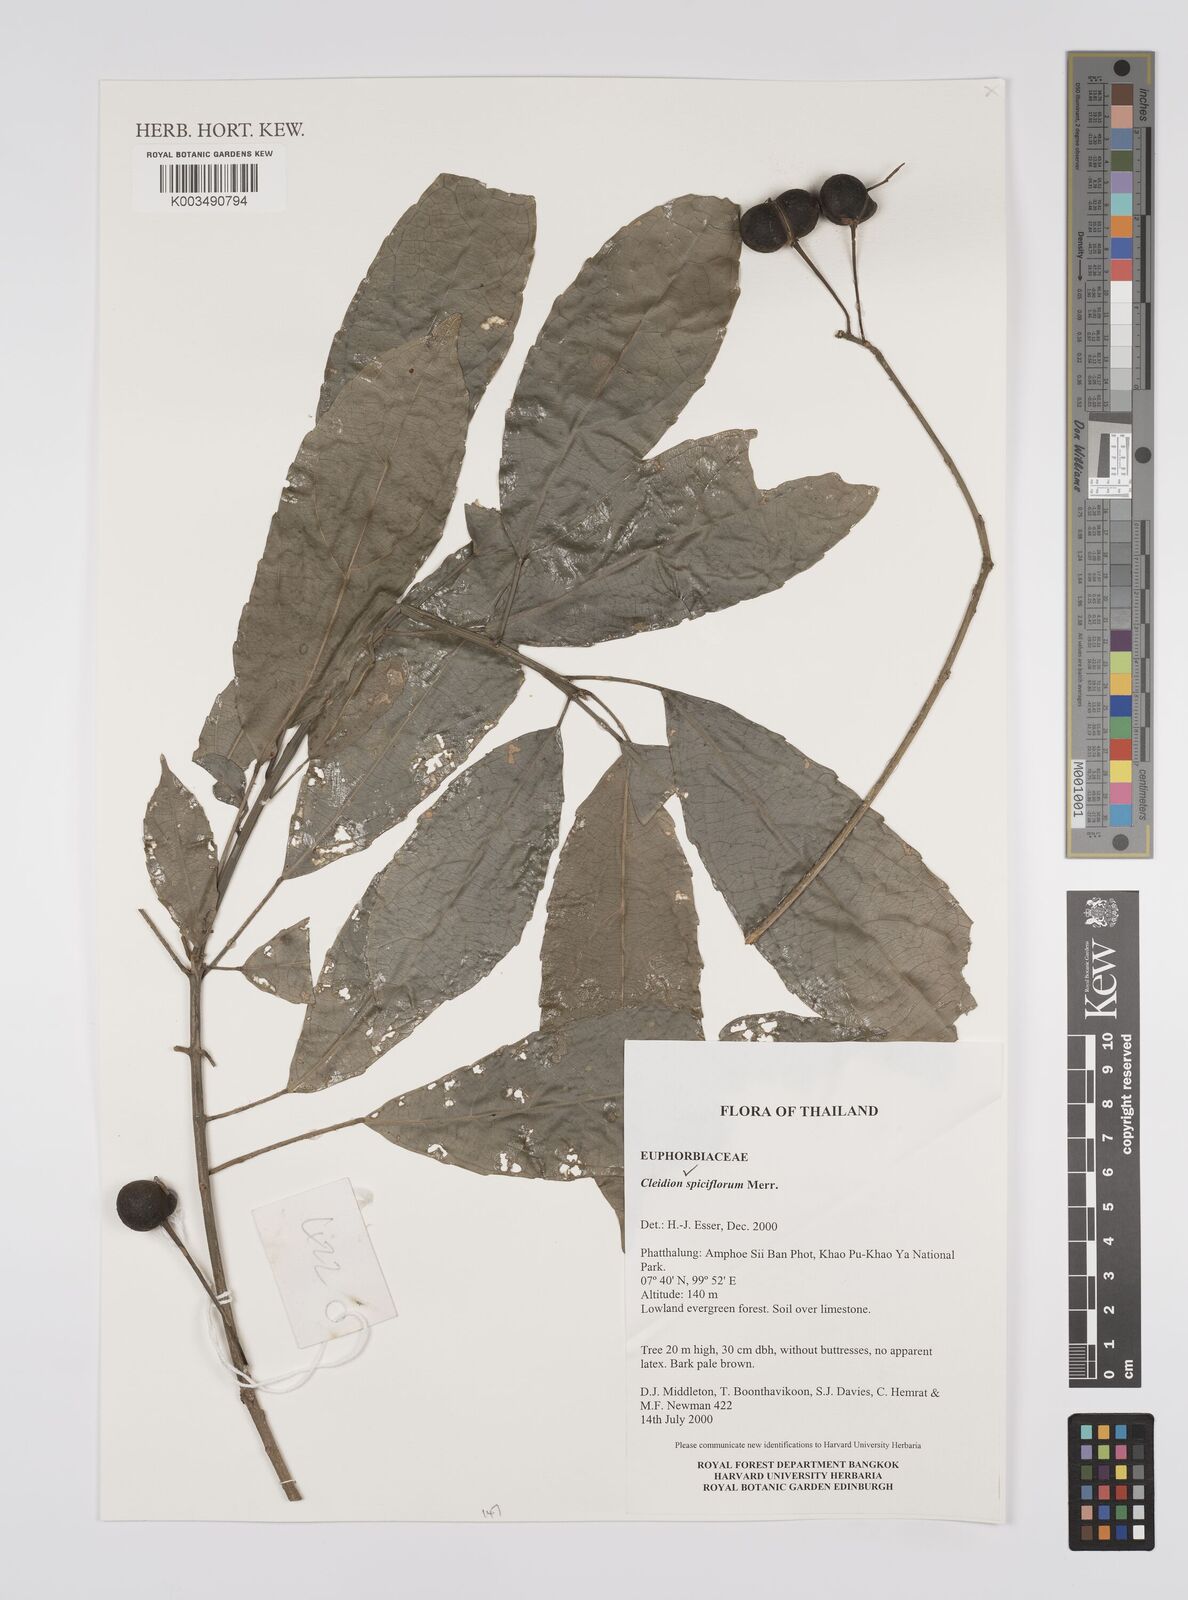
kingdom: Plantae
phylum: Tracheophyta
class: Magnoliopsida
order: Malpighiales
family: Euphorbiaceae
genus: Cleidion
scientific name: Cleidion javanicum
